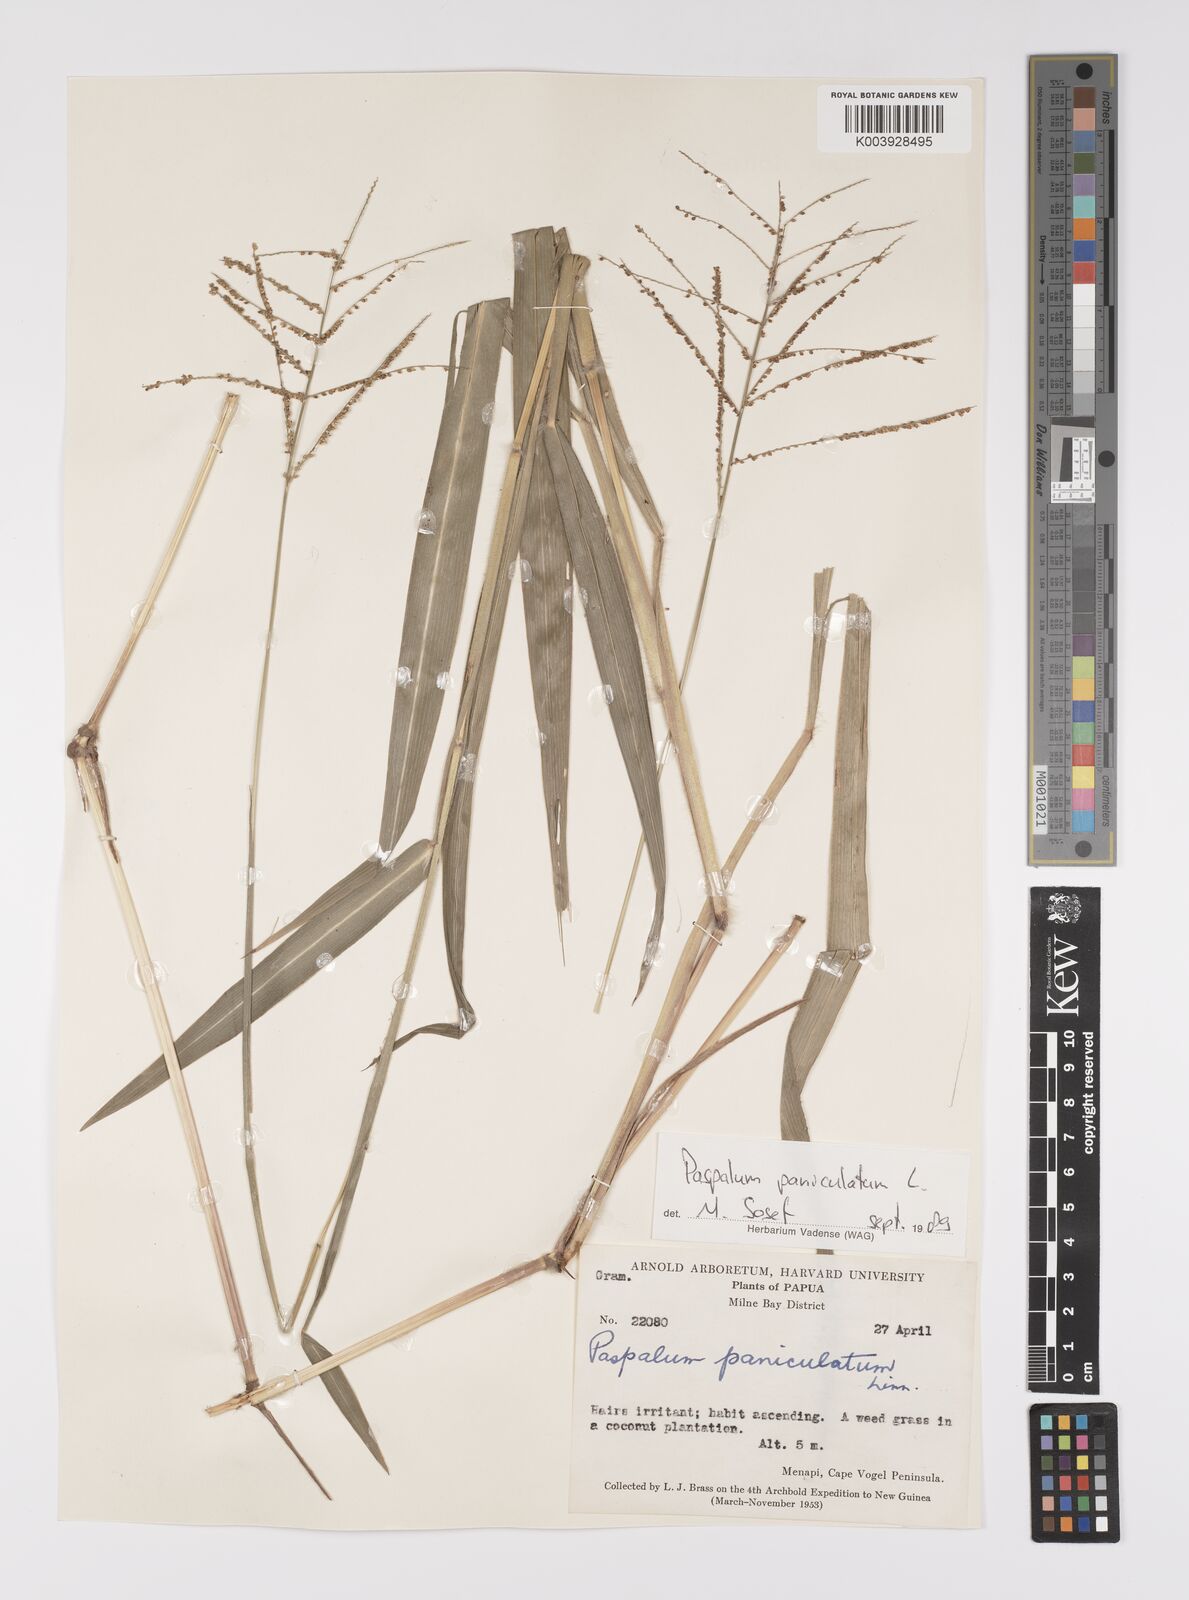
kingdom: Plantae
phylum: Tracheophyta
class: Liliopsida
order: Poales
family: Poaceae
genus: Paspalum
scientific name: Paspalum paniculatum
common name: Arrocillo
